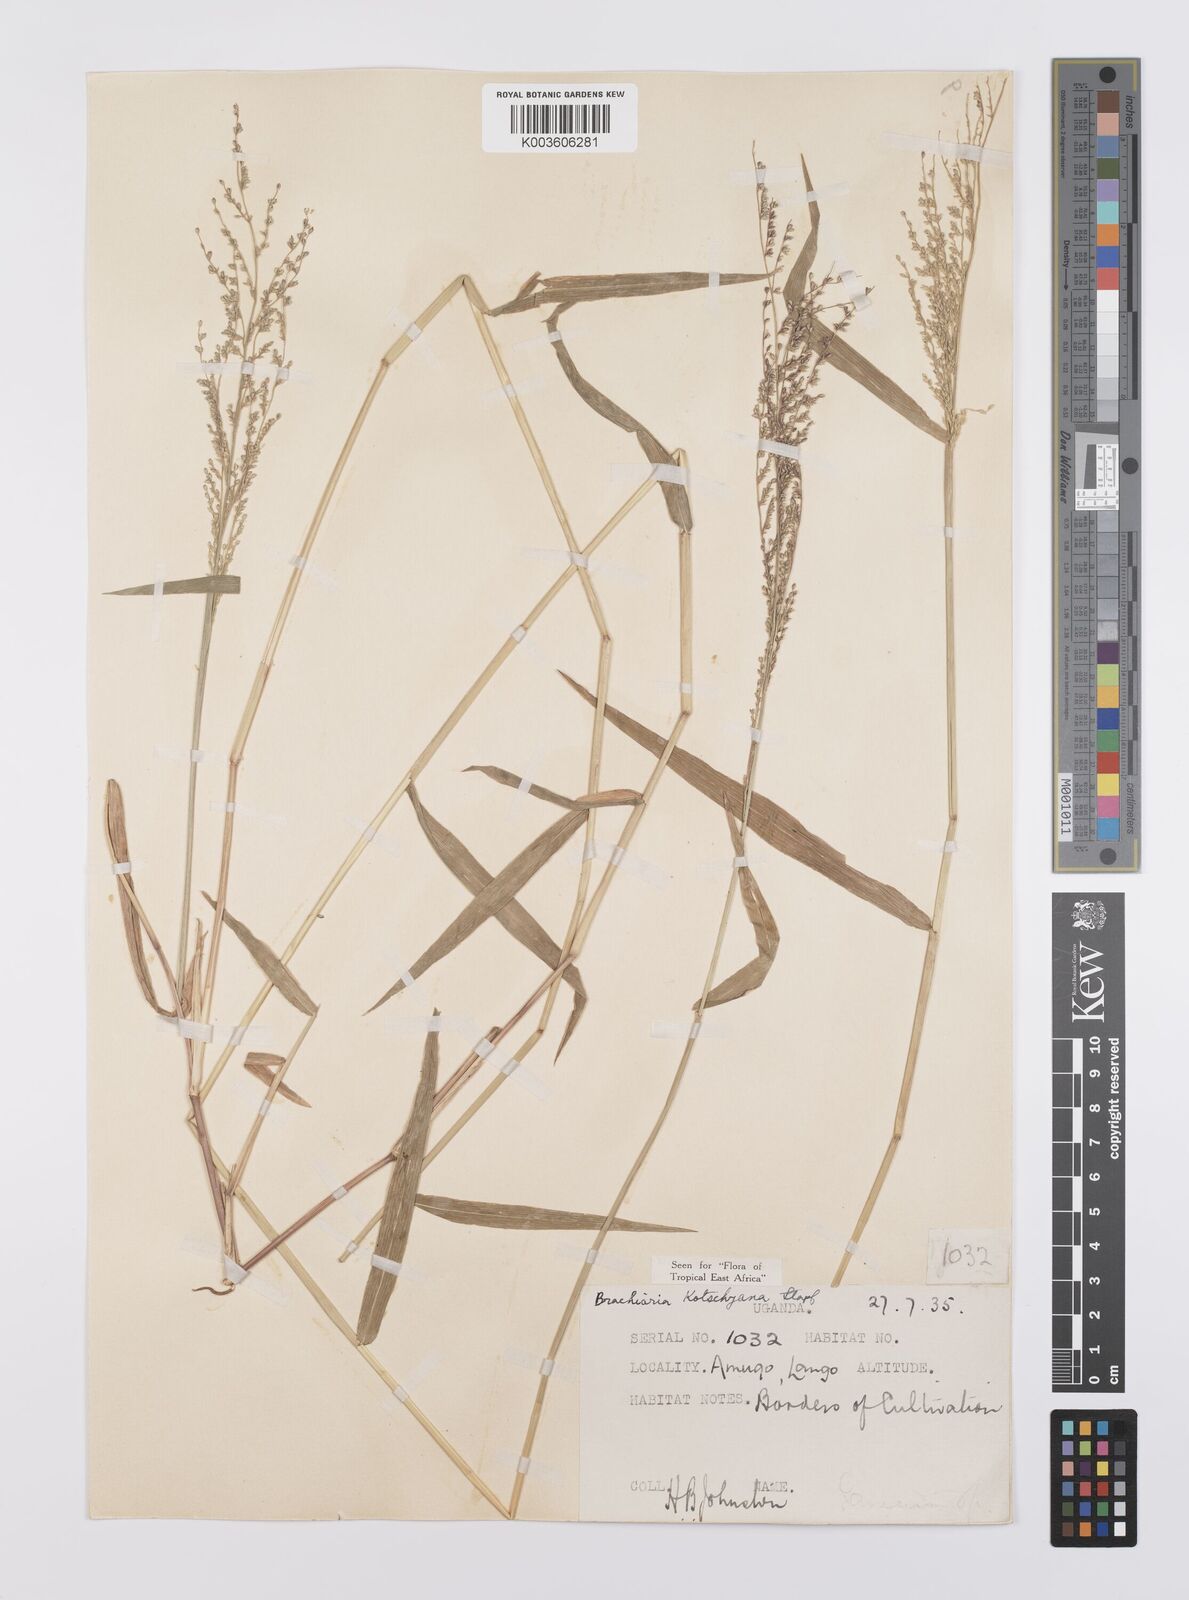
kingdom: Plantae
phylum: Tracheophyta
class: Liliopsida
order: Poales
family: Poaceae
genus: Urochloa
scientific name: Urochloa comata
